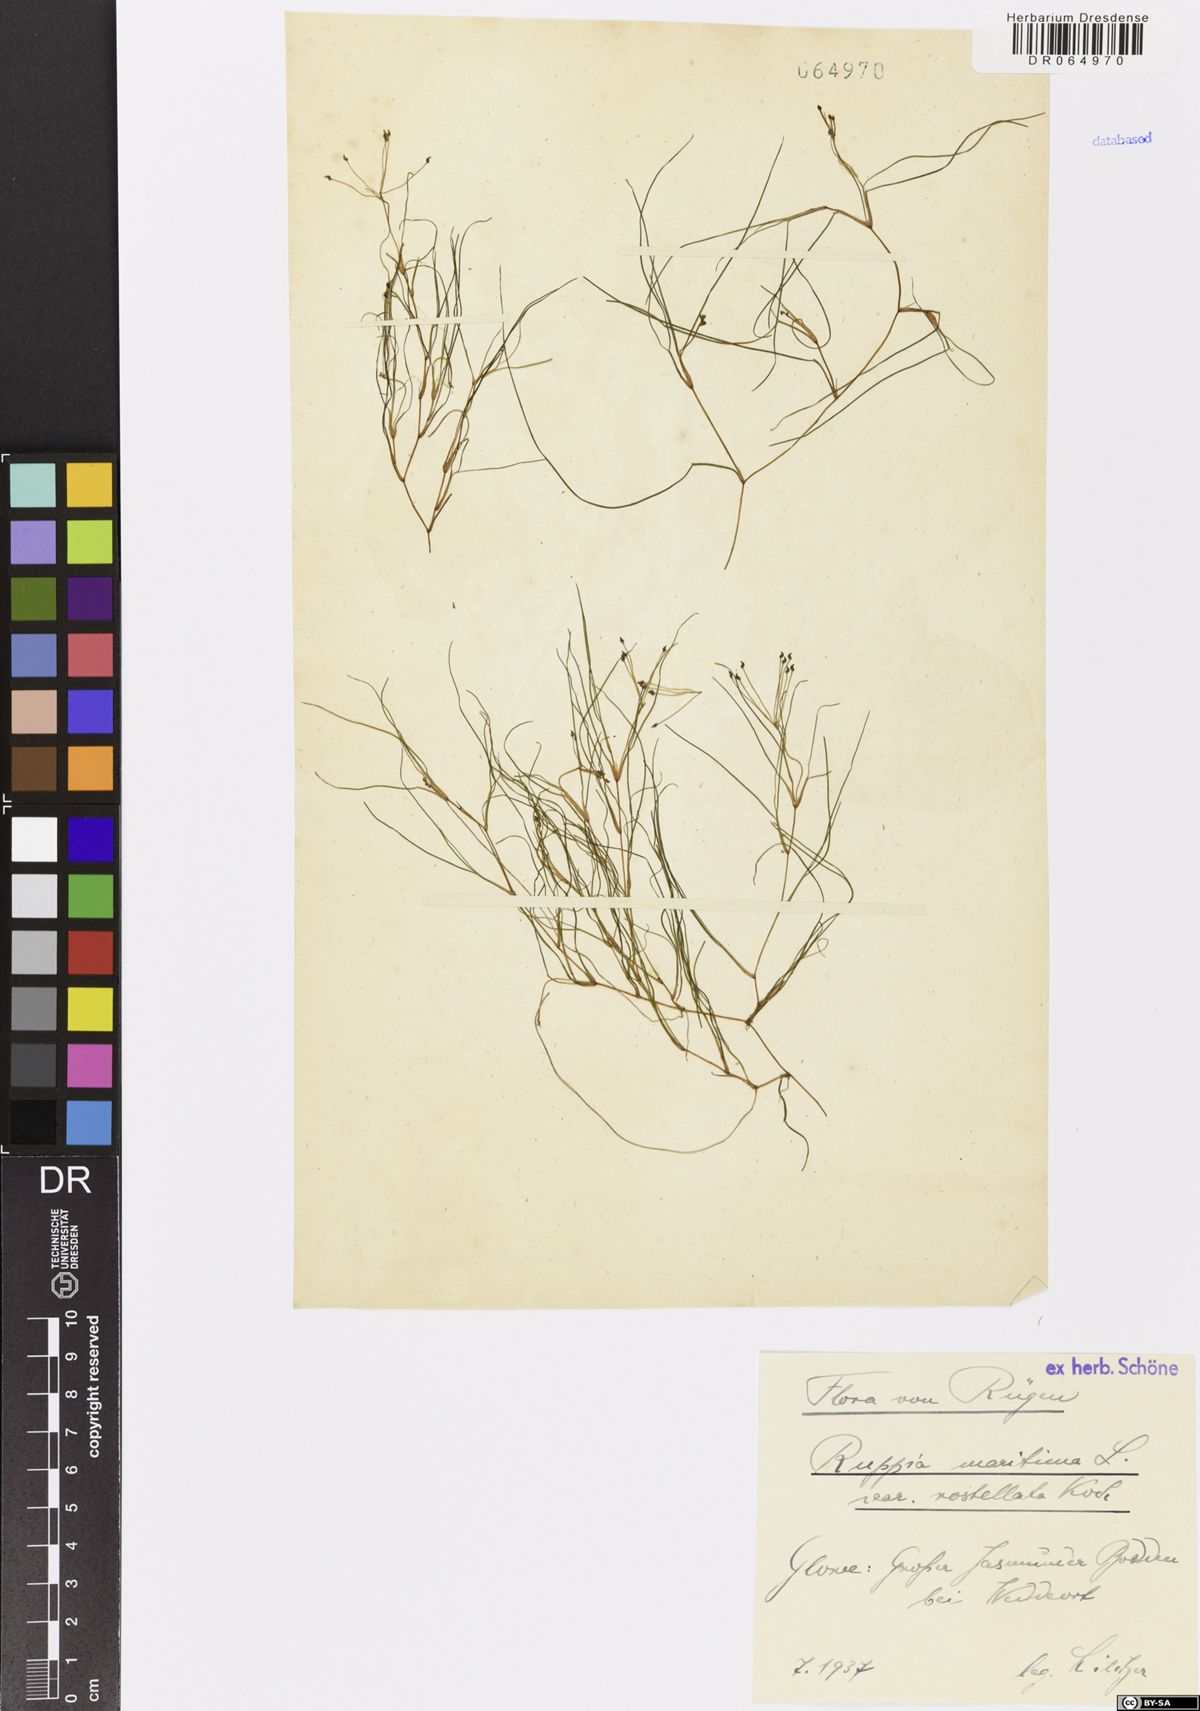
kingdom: Plantae
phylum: Tracheophyta
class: Liliopsida
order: Alismatales
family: Ruppiaceae
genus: Ruppia
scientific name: Ruppia maritima
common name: Beaked tasselweed
